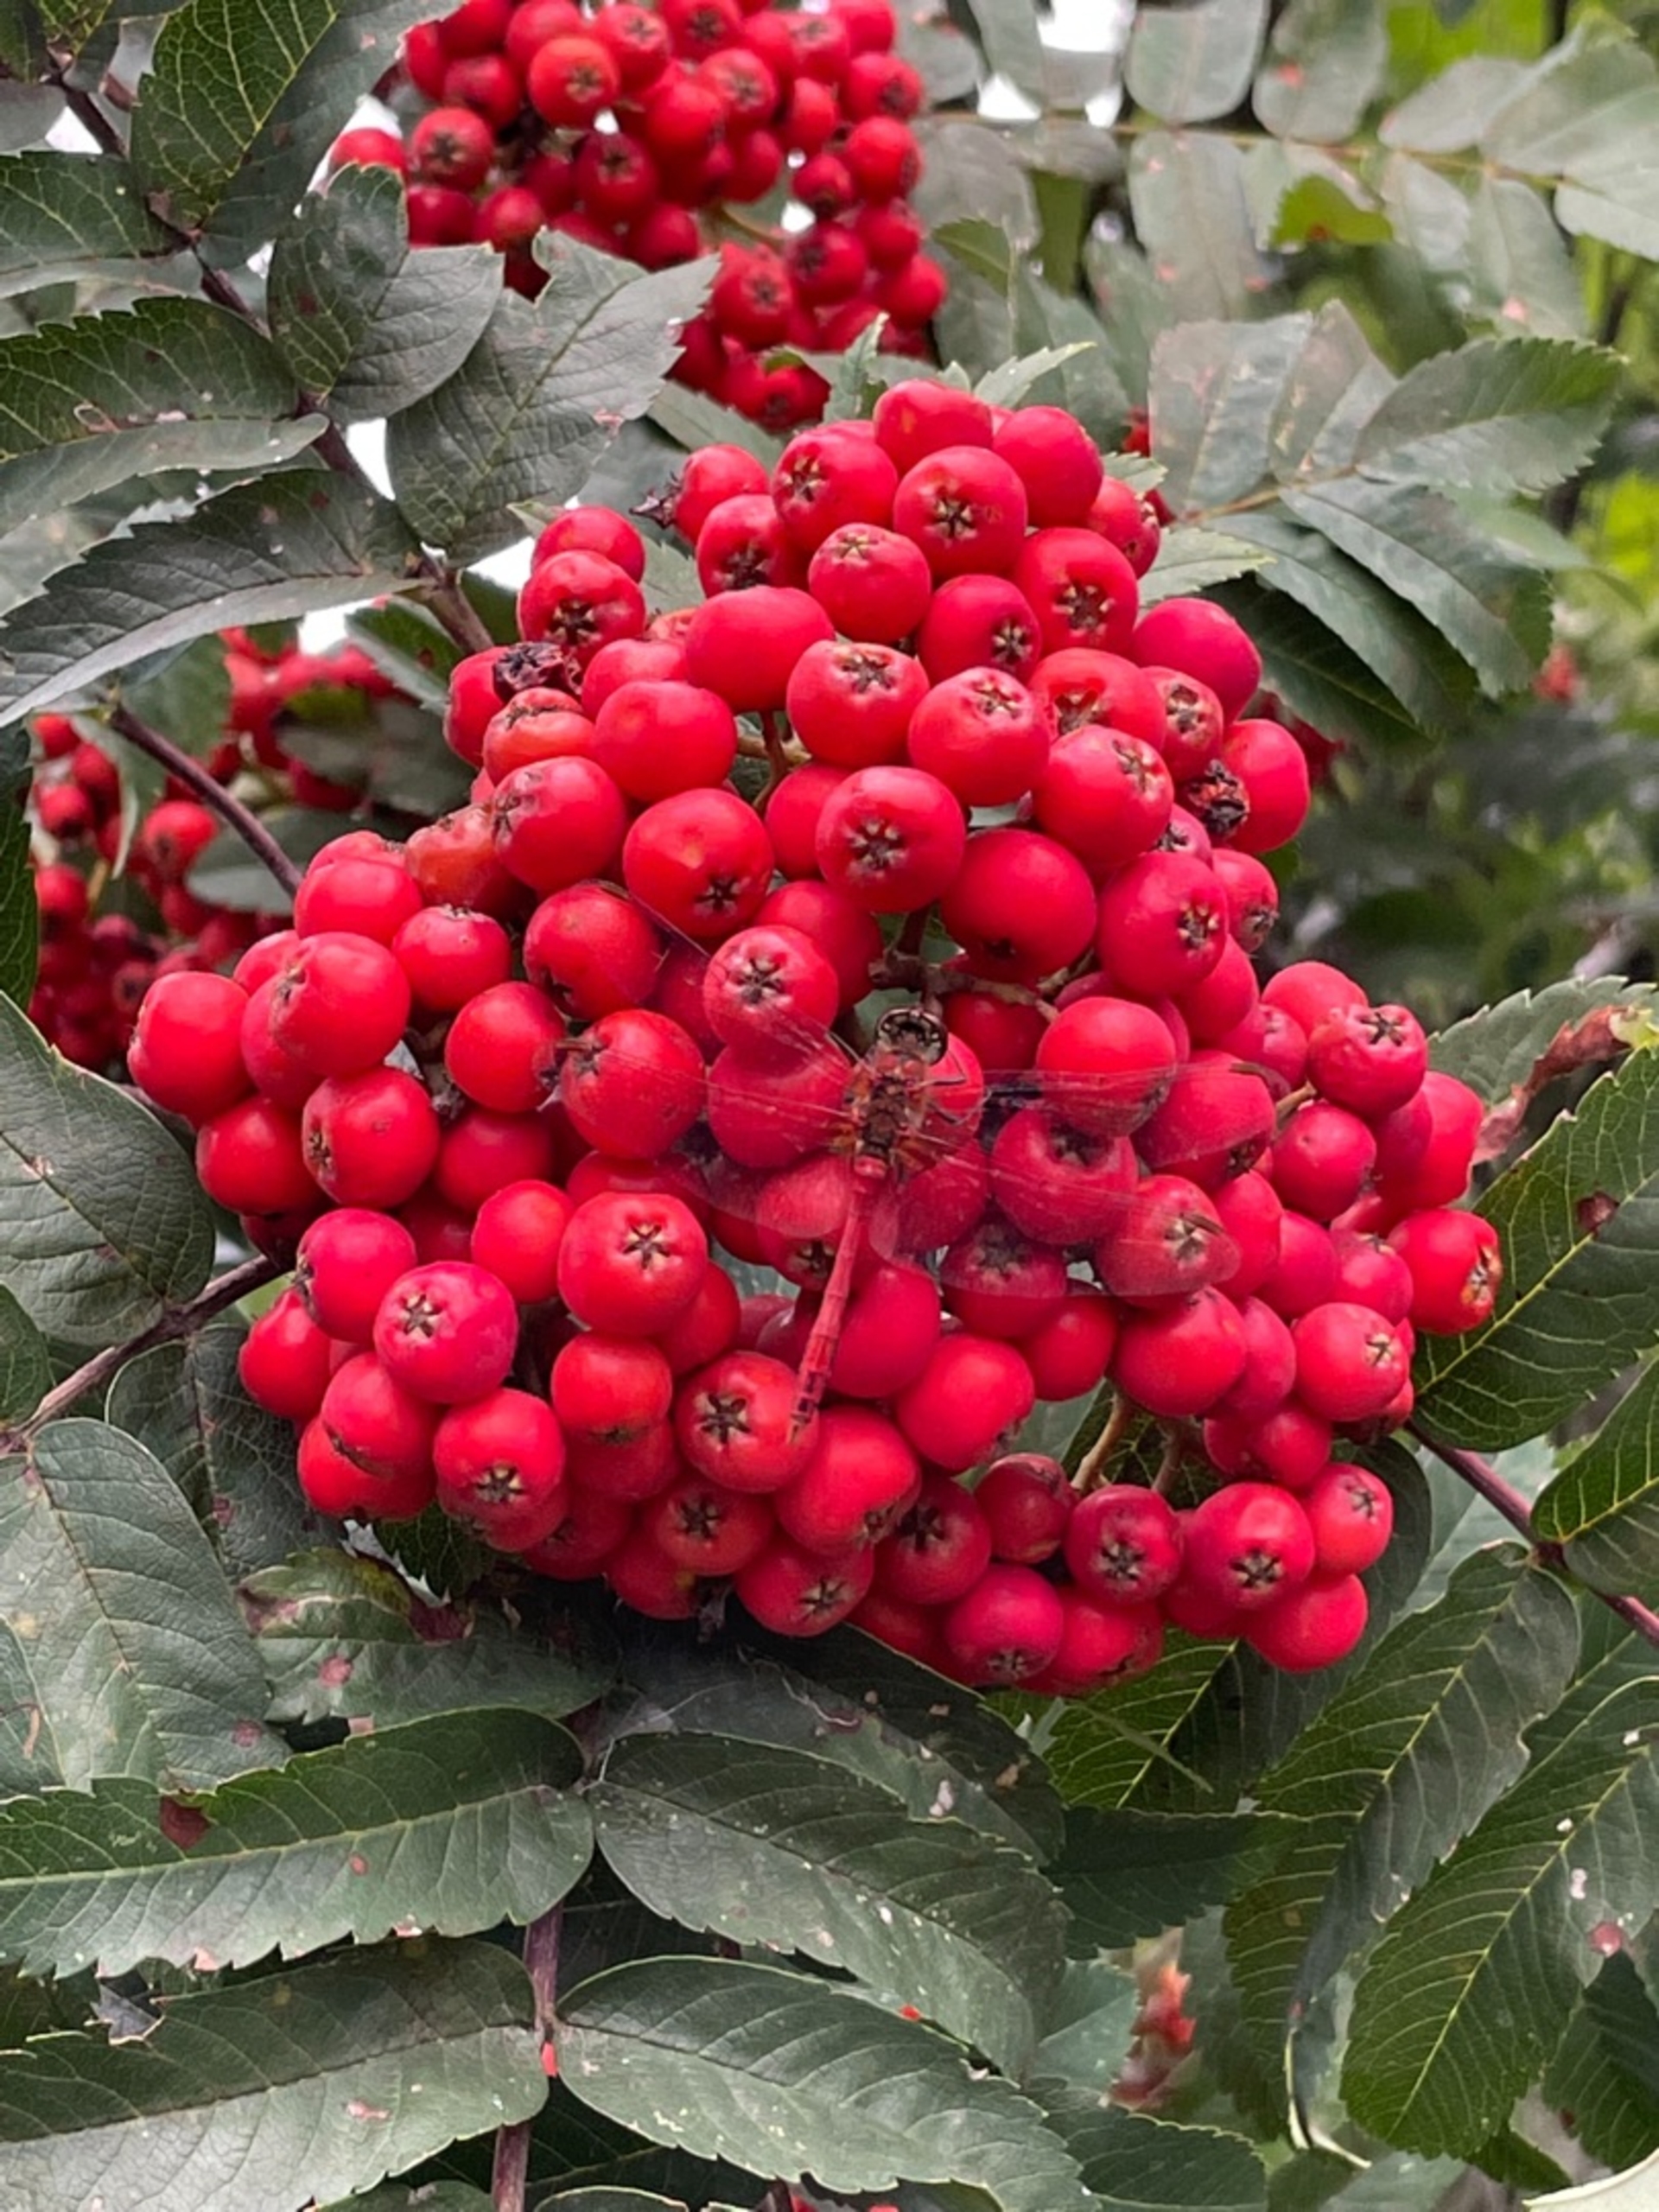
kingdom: Animalia
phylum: Arthropoda
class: Insecta
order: Odonata
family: Libellulidae
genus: Sympetrum
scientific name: Sympetrum sanguineum
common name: Blodrød hedelibel
